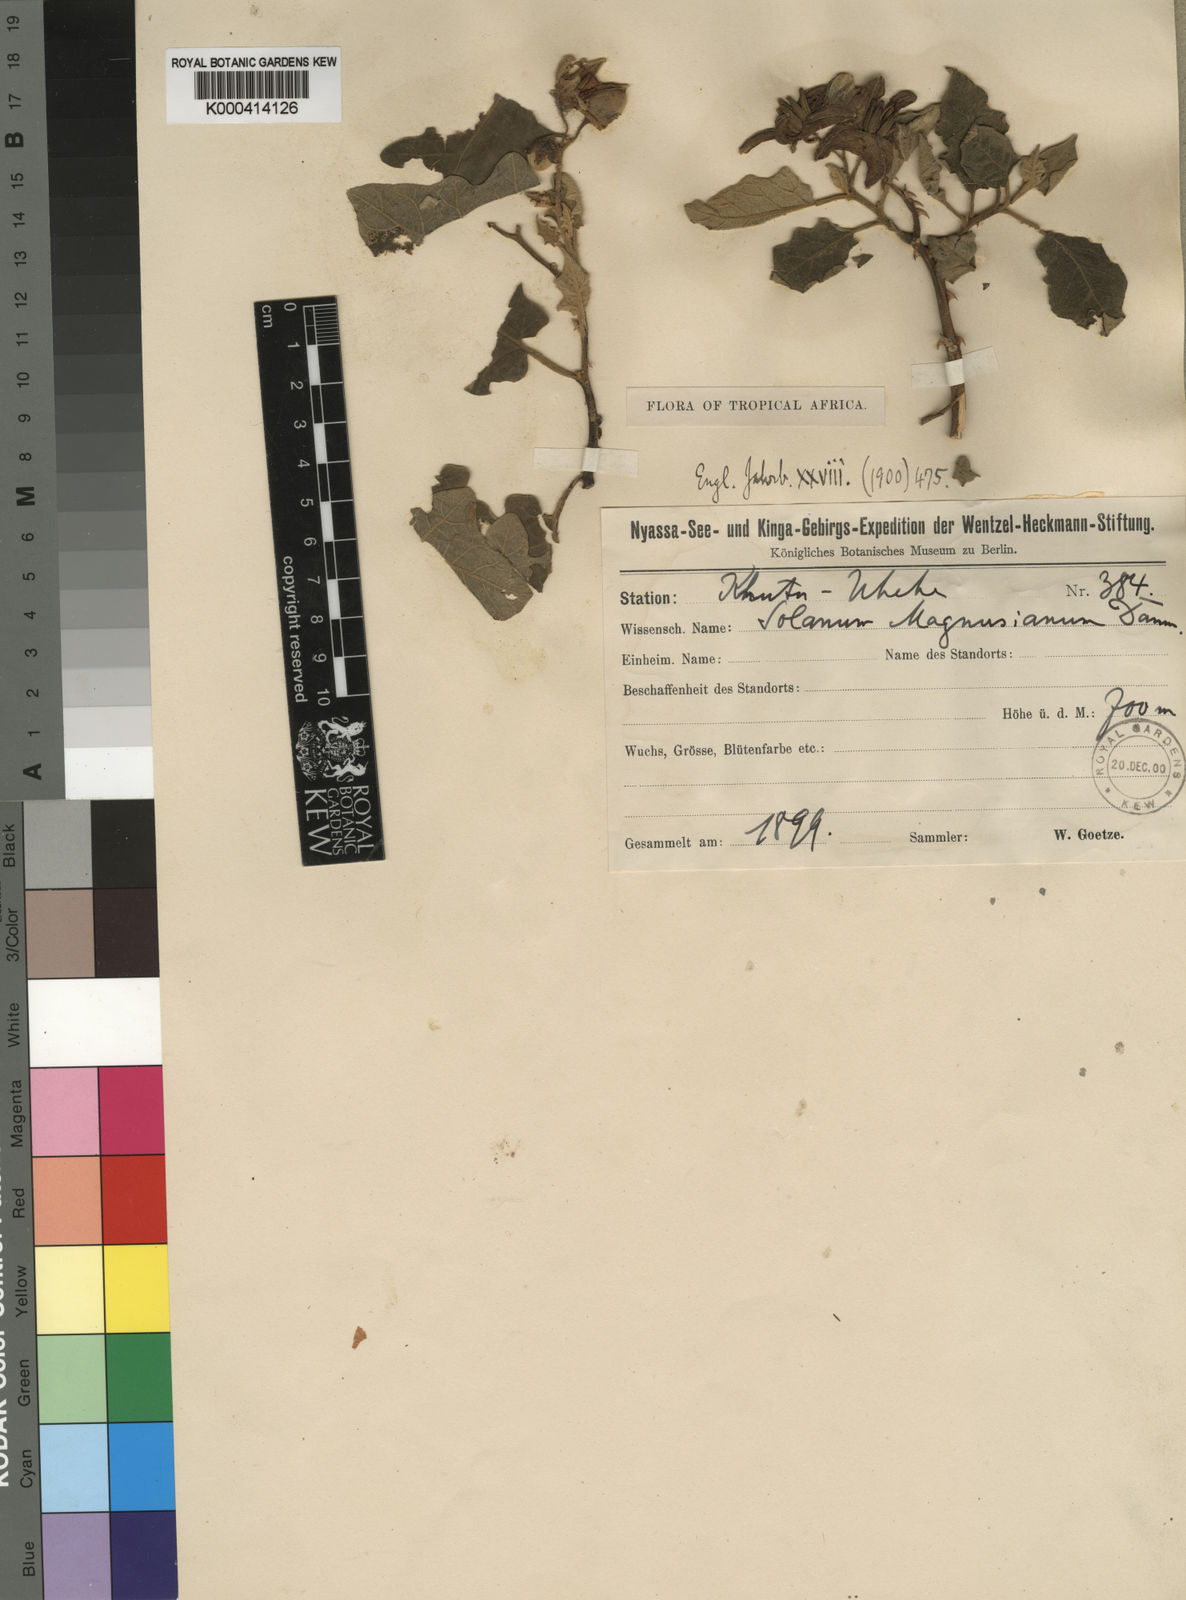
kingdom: Plantae
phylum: Tracheophyta
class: Magnoliopsida
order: Solanales
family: Solanaceae
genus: Solanum
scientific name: Solanum richardii
